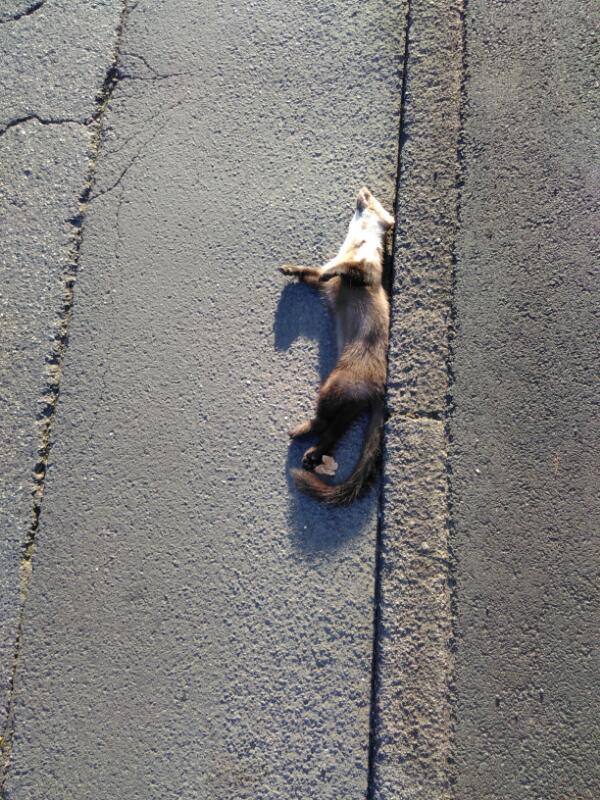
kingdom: Animalia
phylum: Chordata
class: Mammalia
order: Carnivora
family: Mustelidae
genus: Martes
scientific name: Martes
